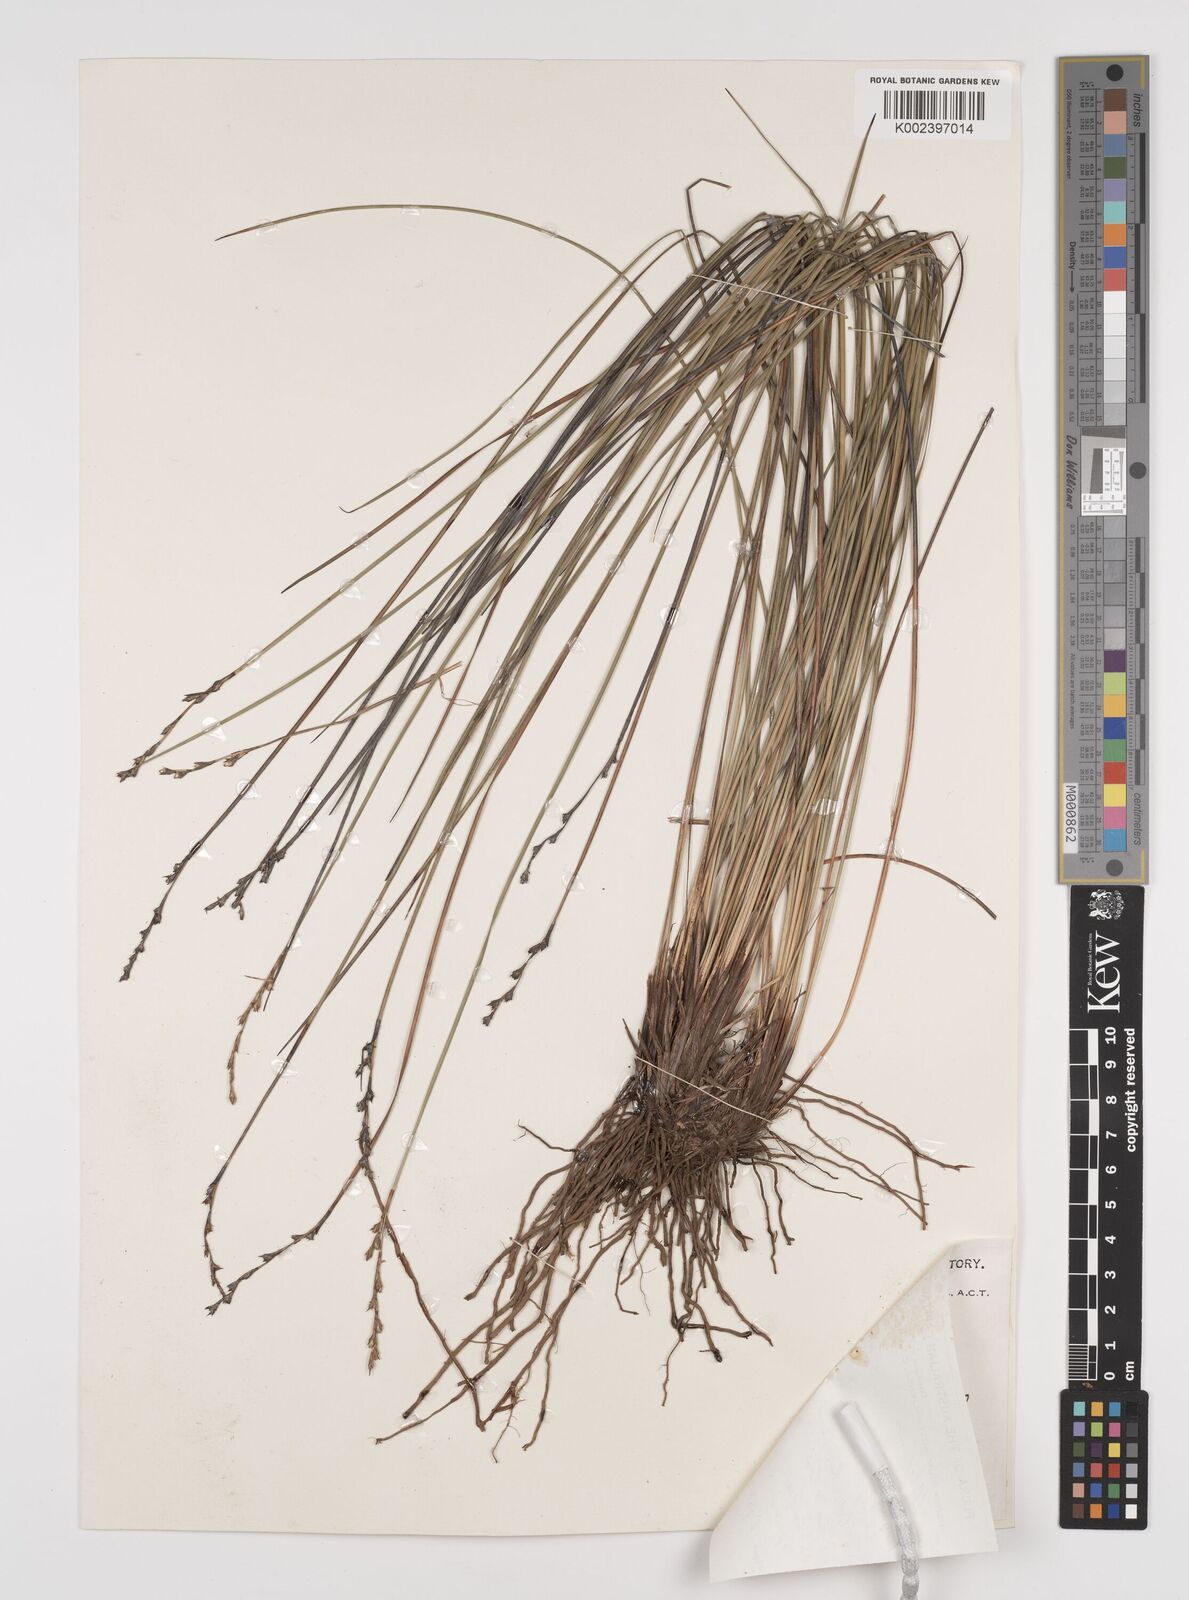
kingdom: Plantae
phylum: Tracheophyta
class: Liliopsida
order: Poales
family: Cyperaceae
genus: Lepidosperma
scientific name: Lepidosperma lineare
